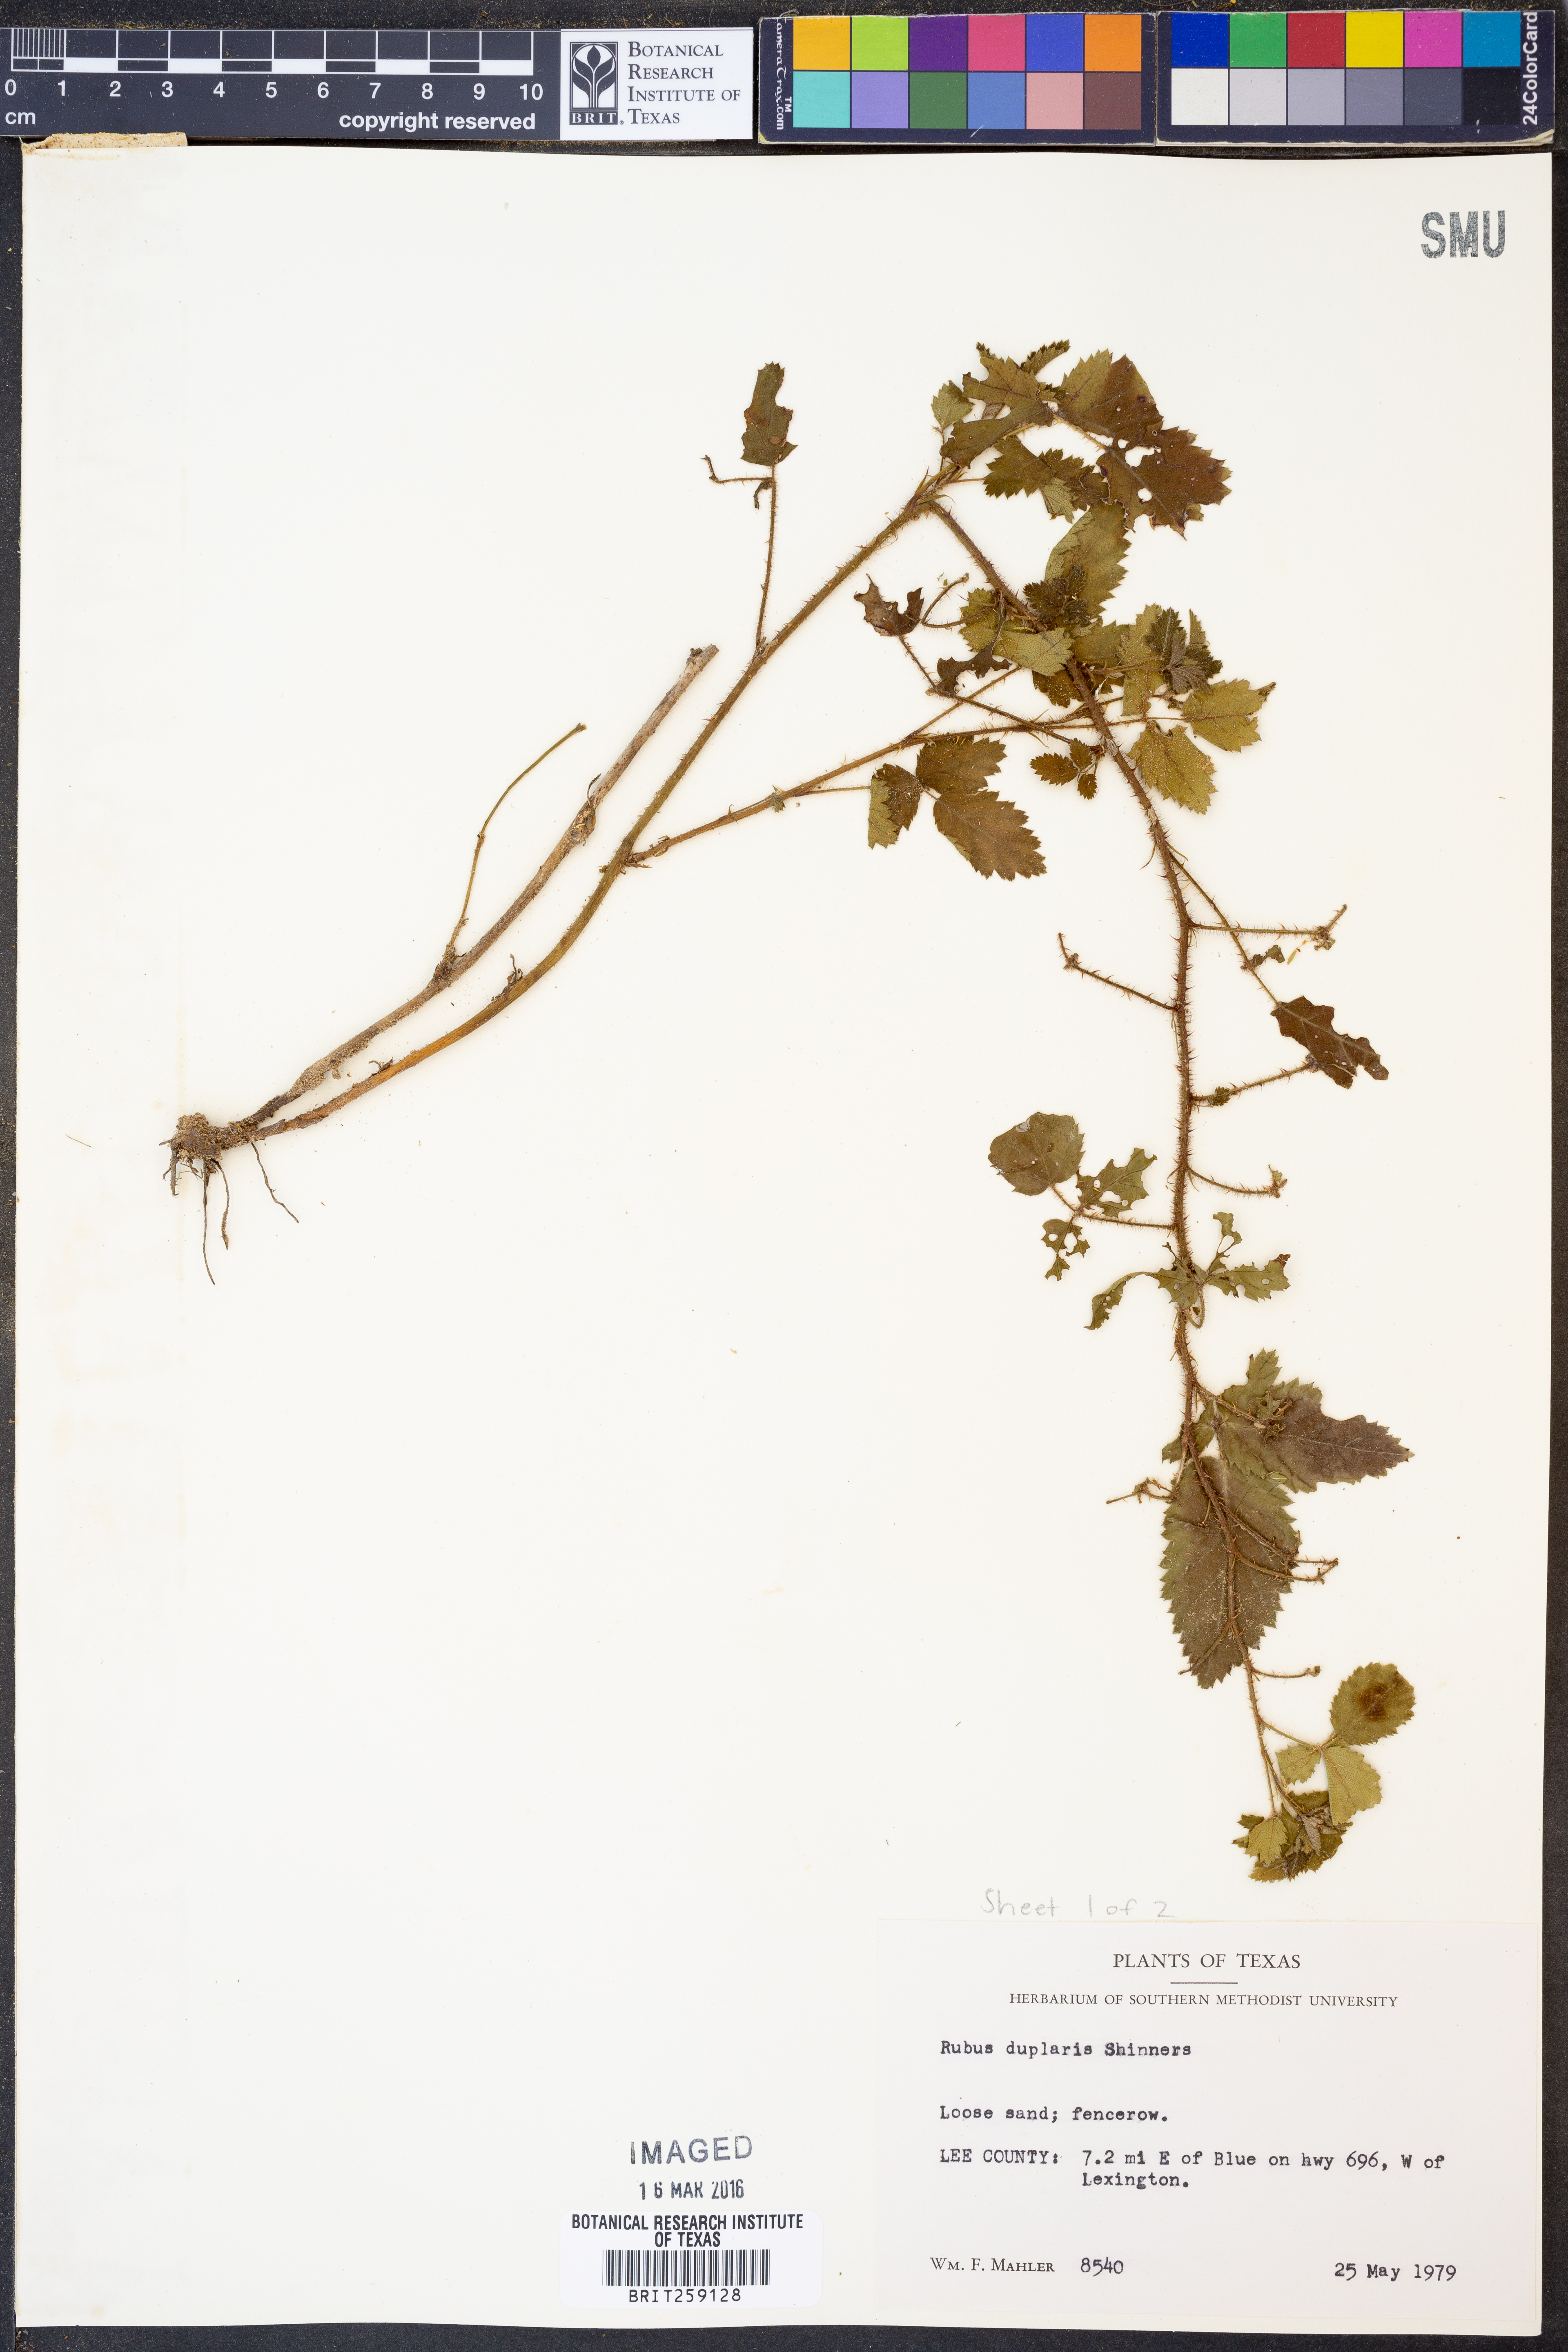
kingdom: Plantae
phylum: Tracheophyta
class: Magnoliopsida
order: Rosales
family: Rosaceae
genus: Rubus
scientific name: Rubus riograndis
